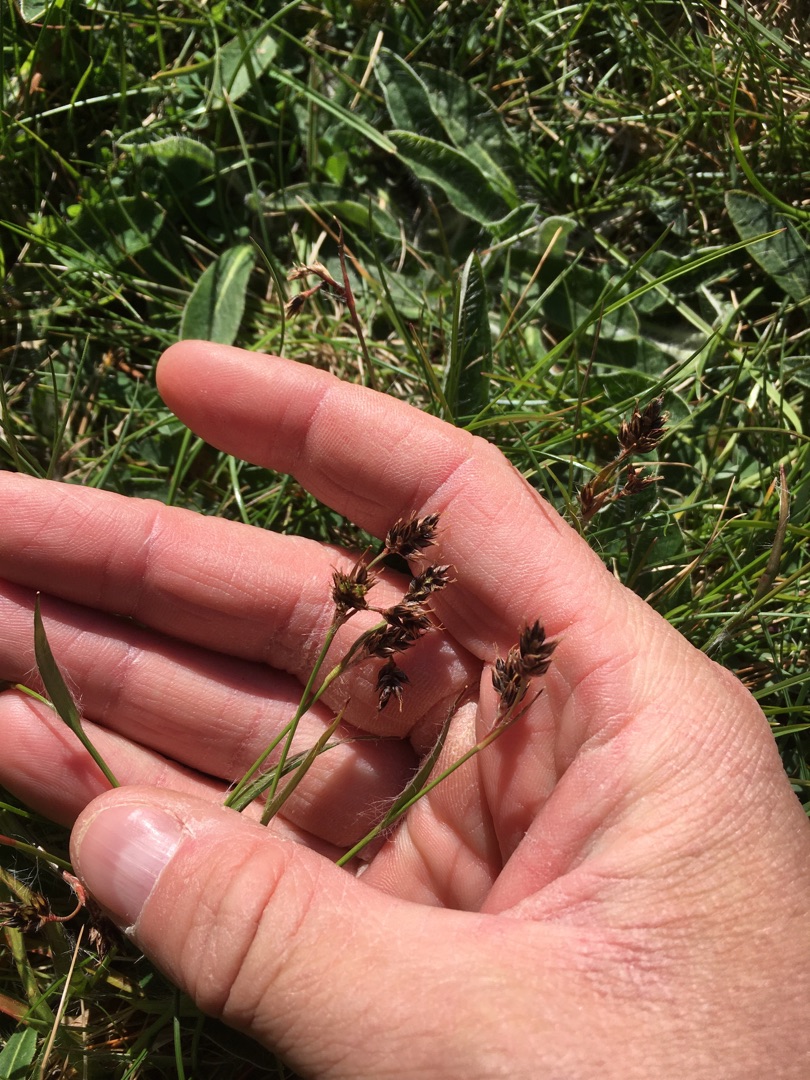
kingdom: Plantae
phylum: Tracheophyta
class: Liliopsida
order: Poales
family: Juncaceae
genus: Luzula
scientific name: Luzula campestris
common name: Mark-frytle
